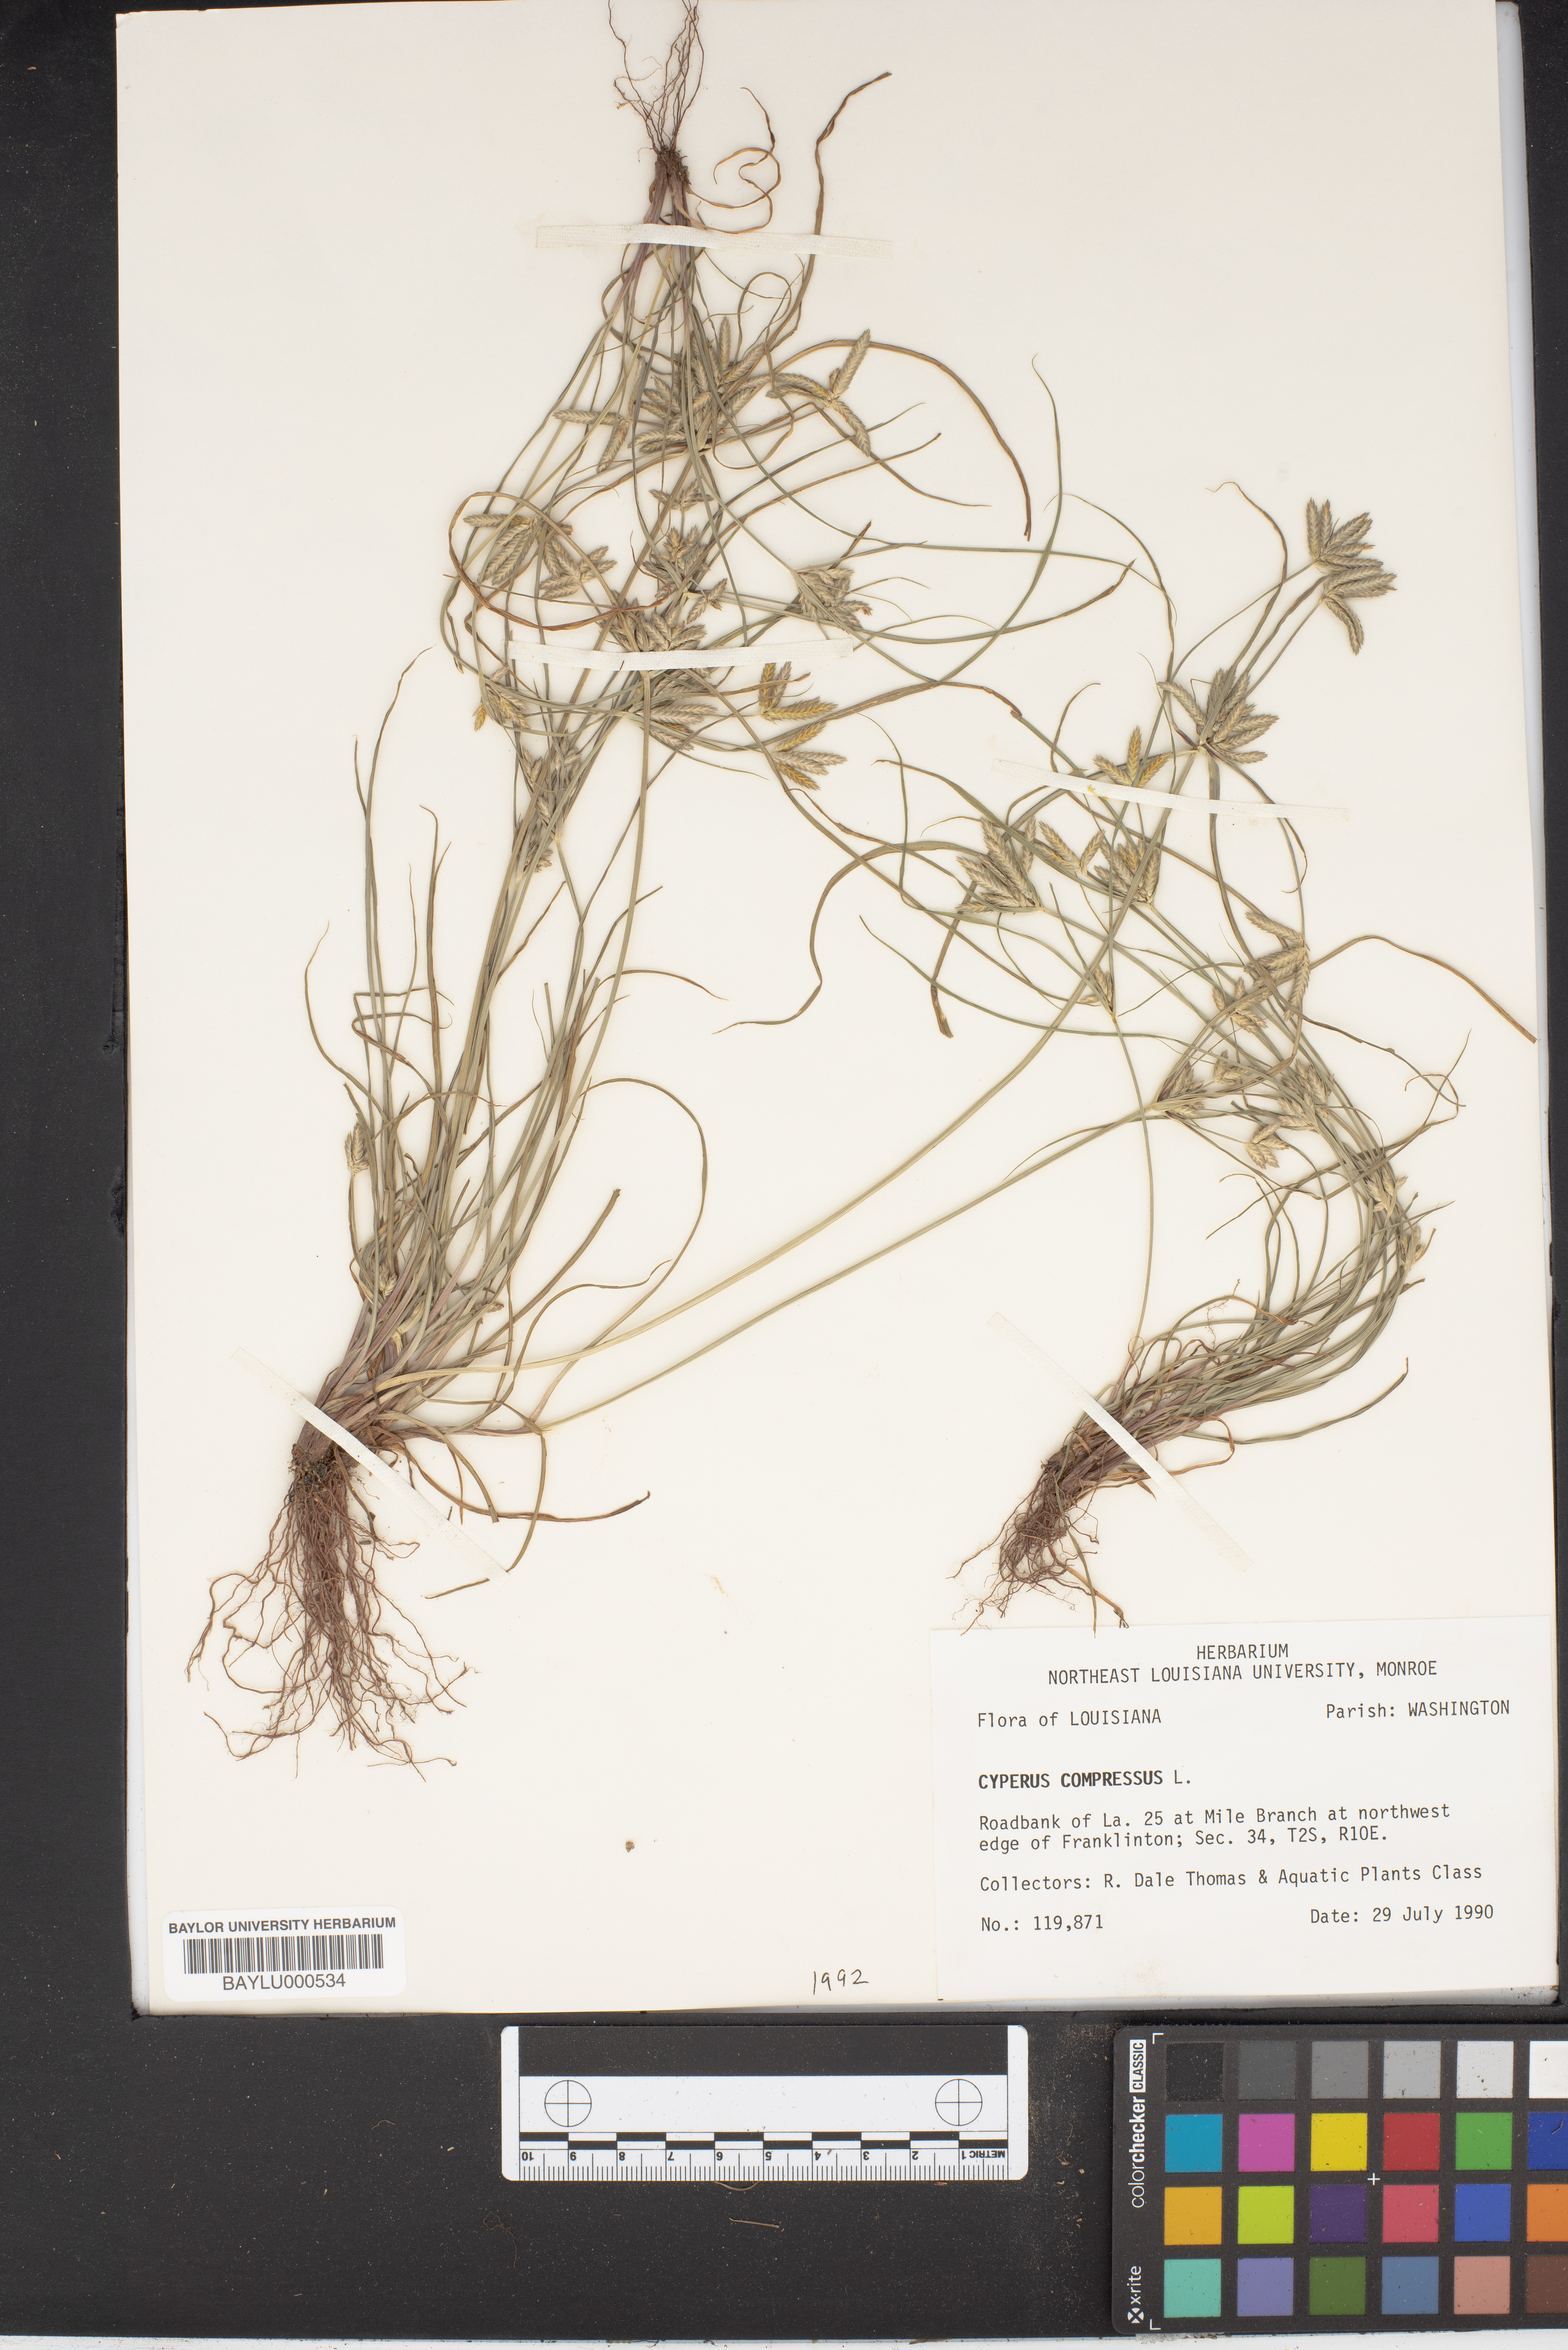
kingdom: Plantae
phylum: Tracheophyta
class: Liliopsida
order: Poales
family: Cyperaceae
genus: Cyperus
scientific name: Cyperus compressus
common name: Poorland flatsedge
